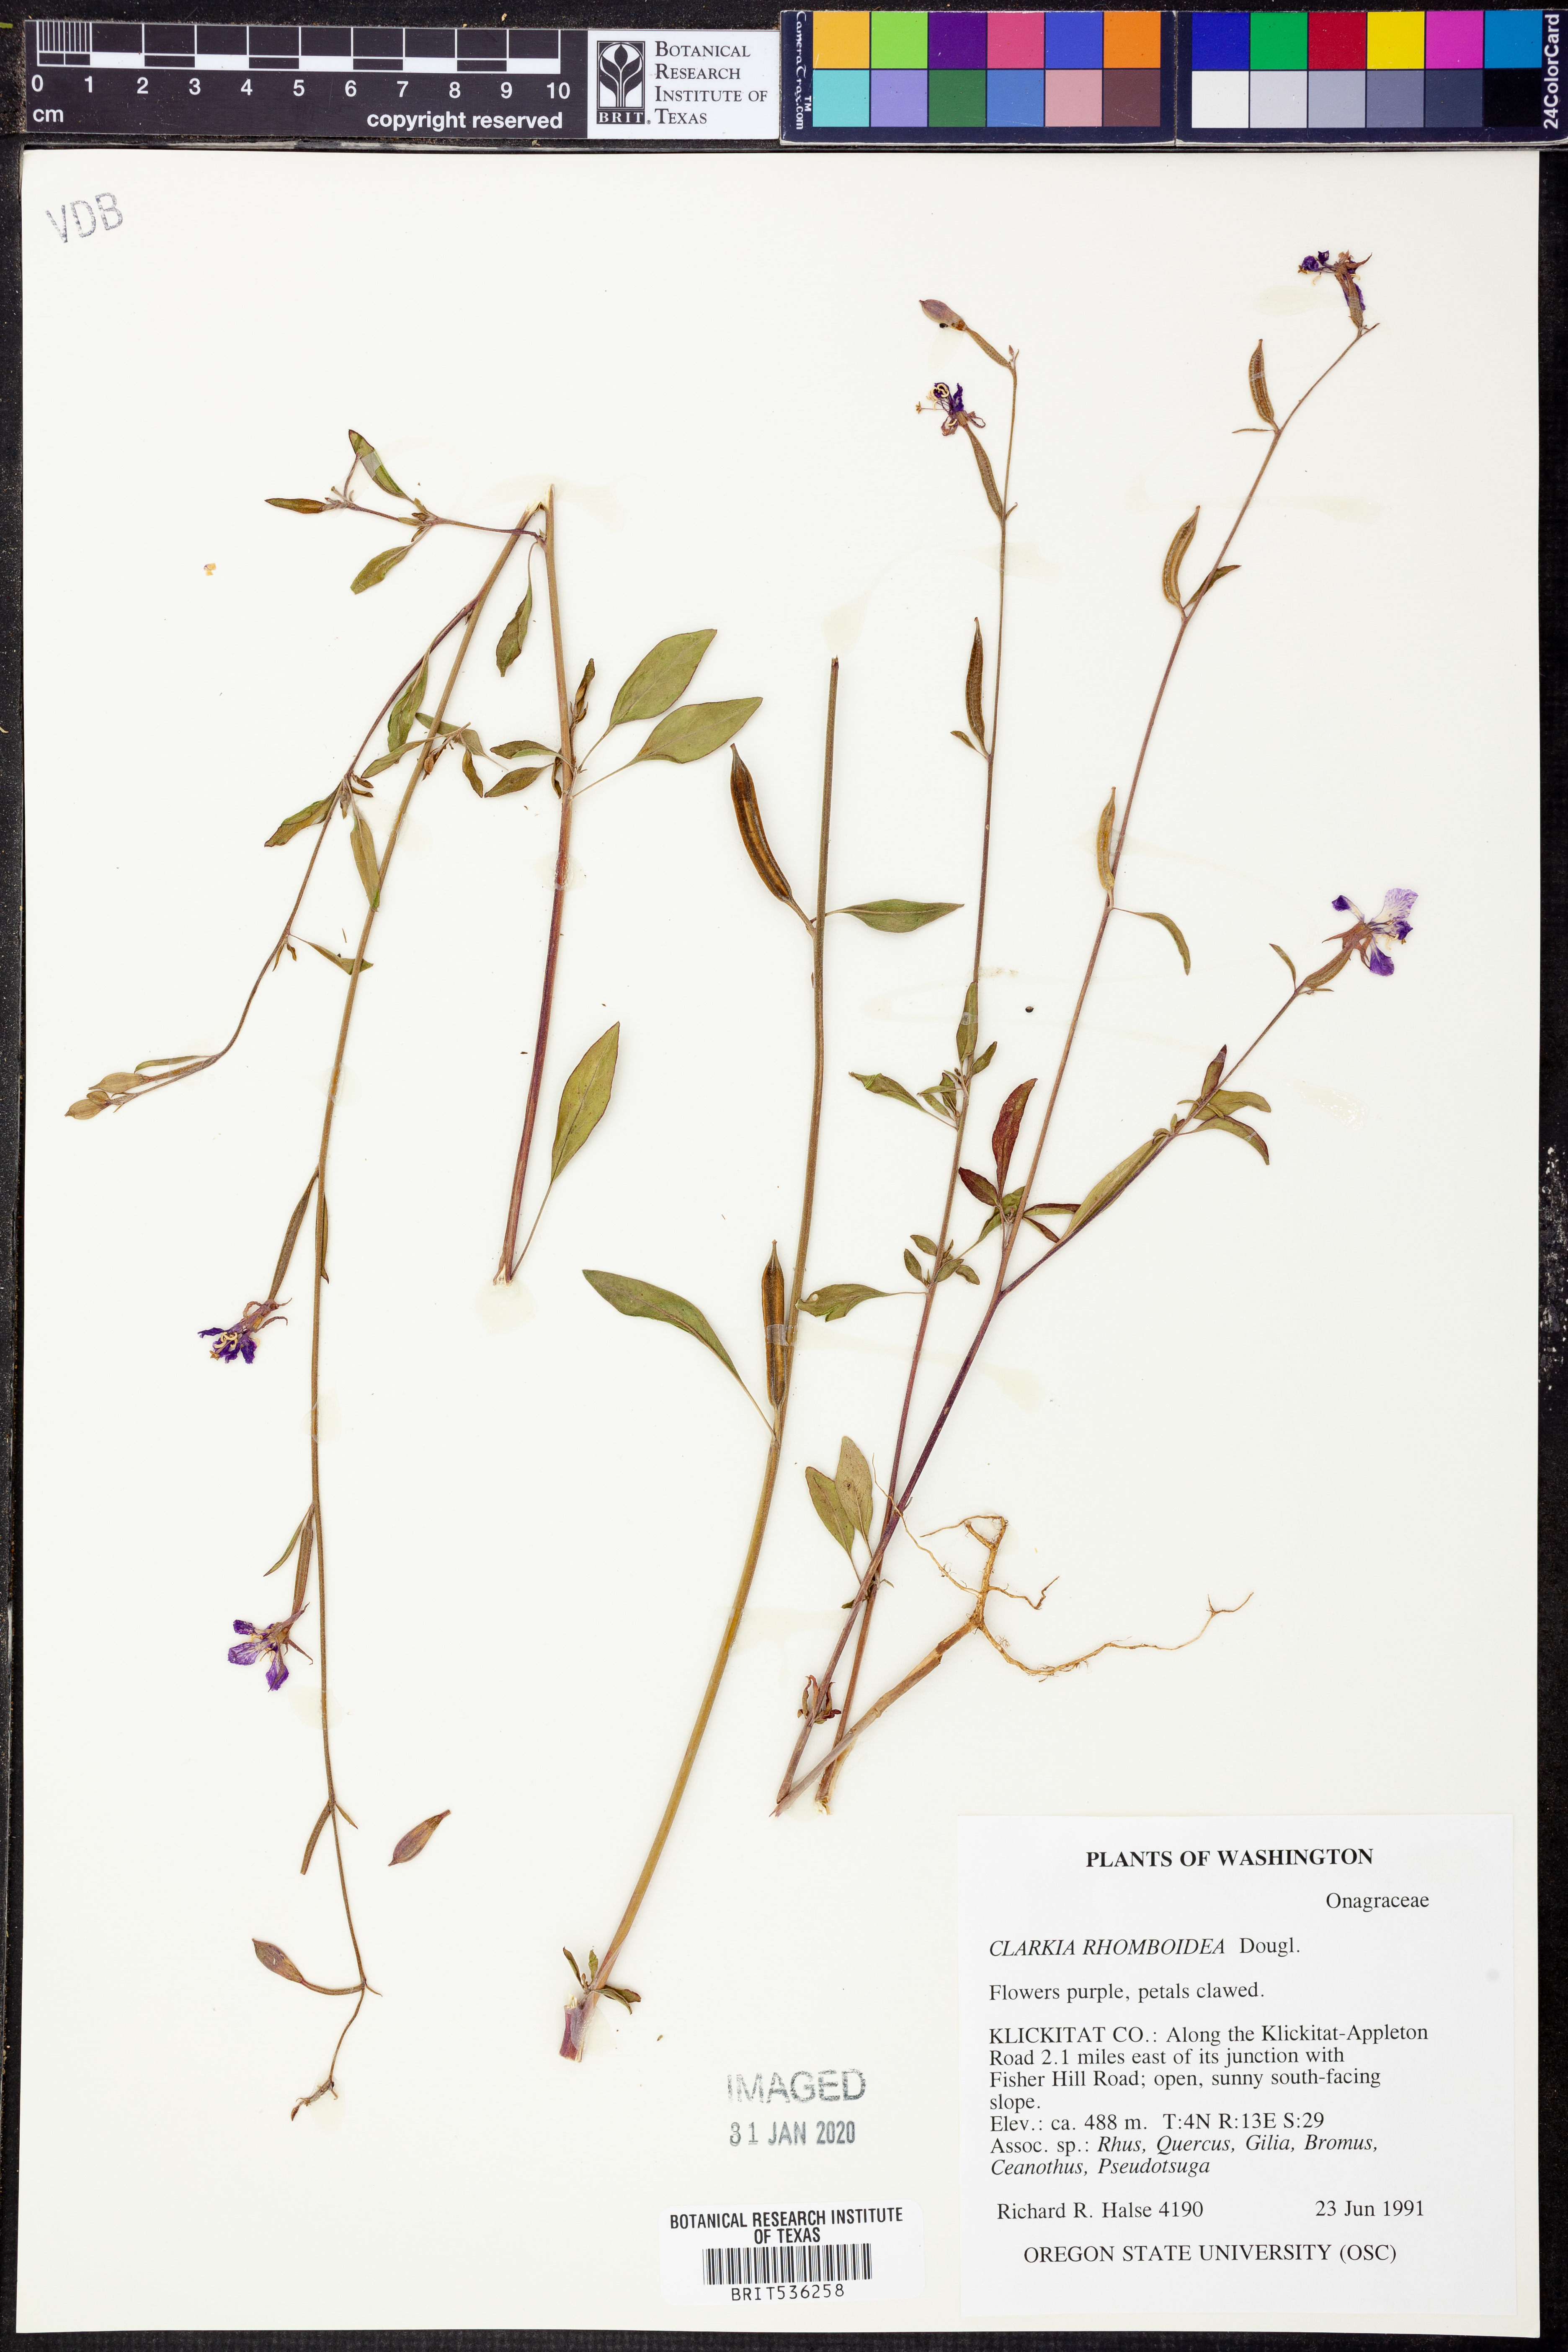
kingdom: Plantae
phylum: Tracheophyta
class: Magnoliopsida
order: Myrtales
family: Onagraceae
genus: Clarkia
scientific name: Clarkia rhomboidea
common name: Broadleaf clarkia
